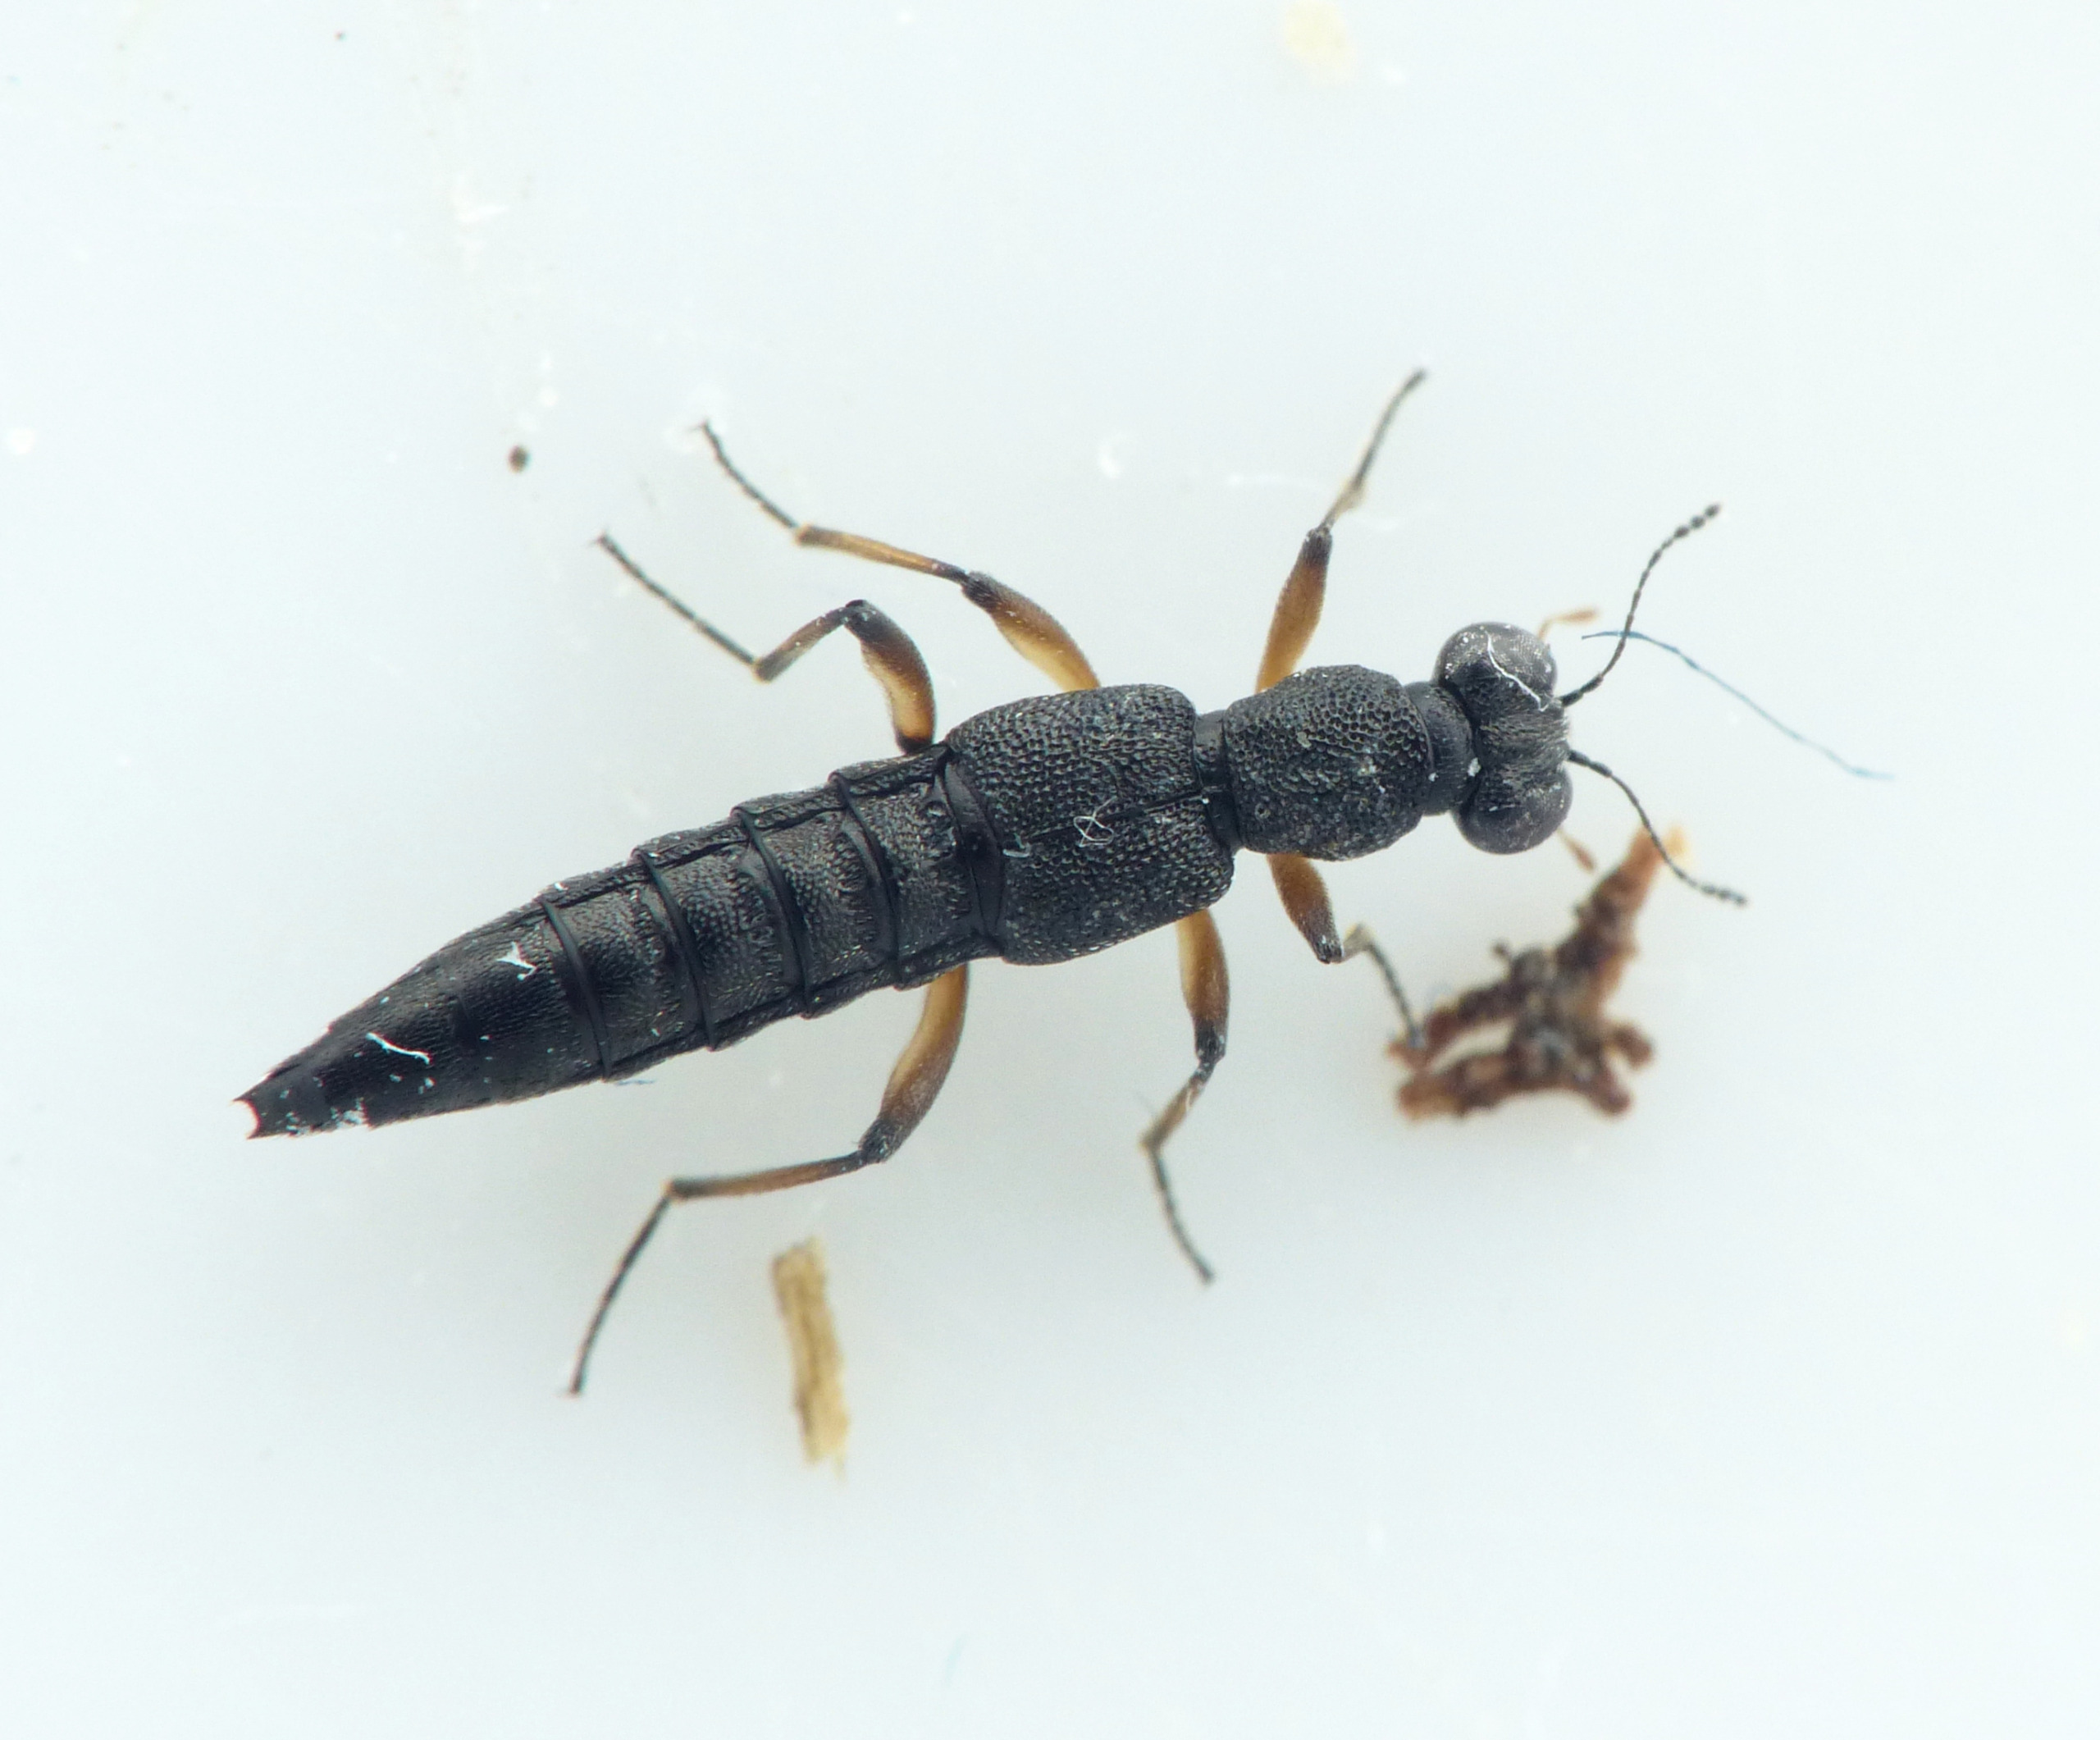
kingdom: Animalia
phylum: Arthropoda
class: Insecta
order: Coleoptera
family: Staphylinidae
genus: Stenus
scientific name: Stenus clavicornis
